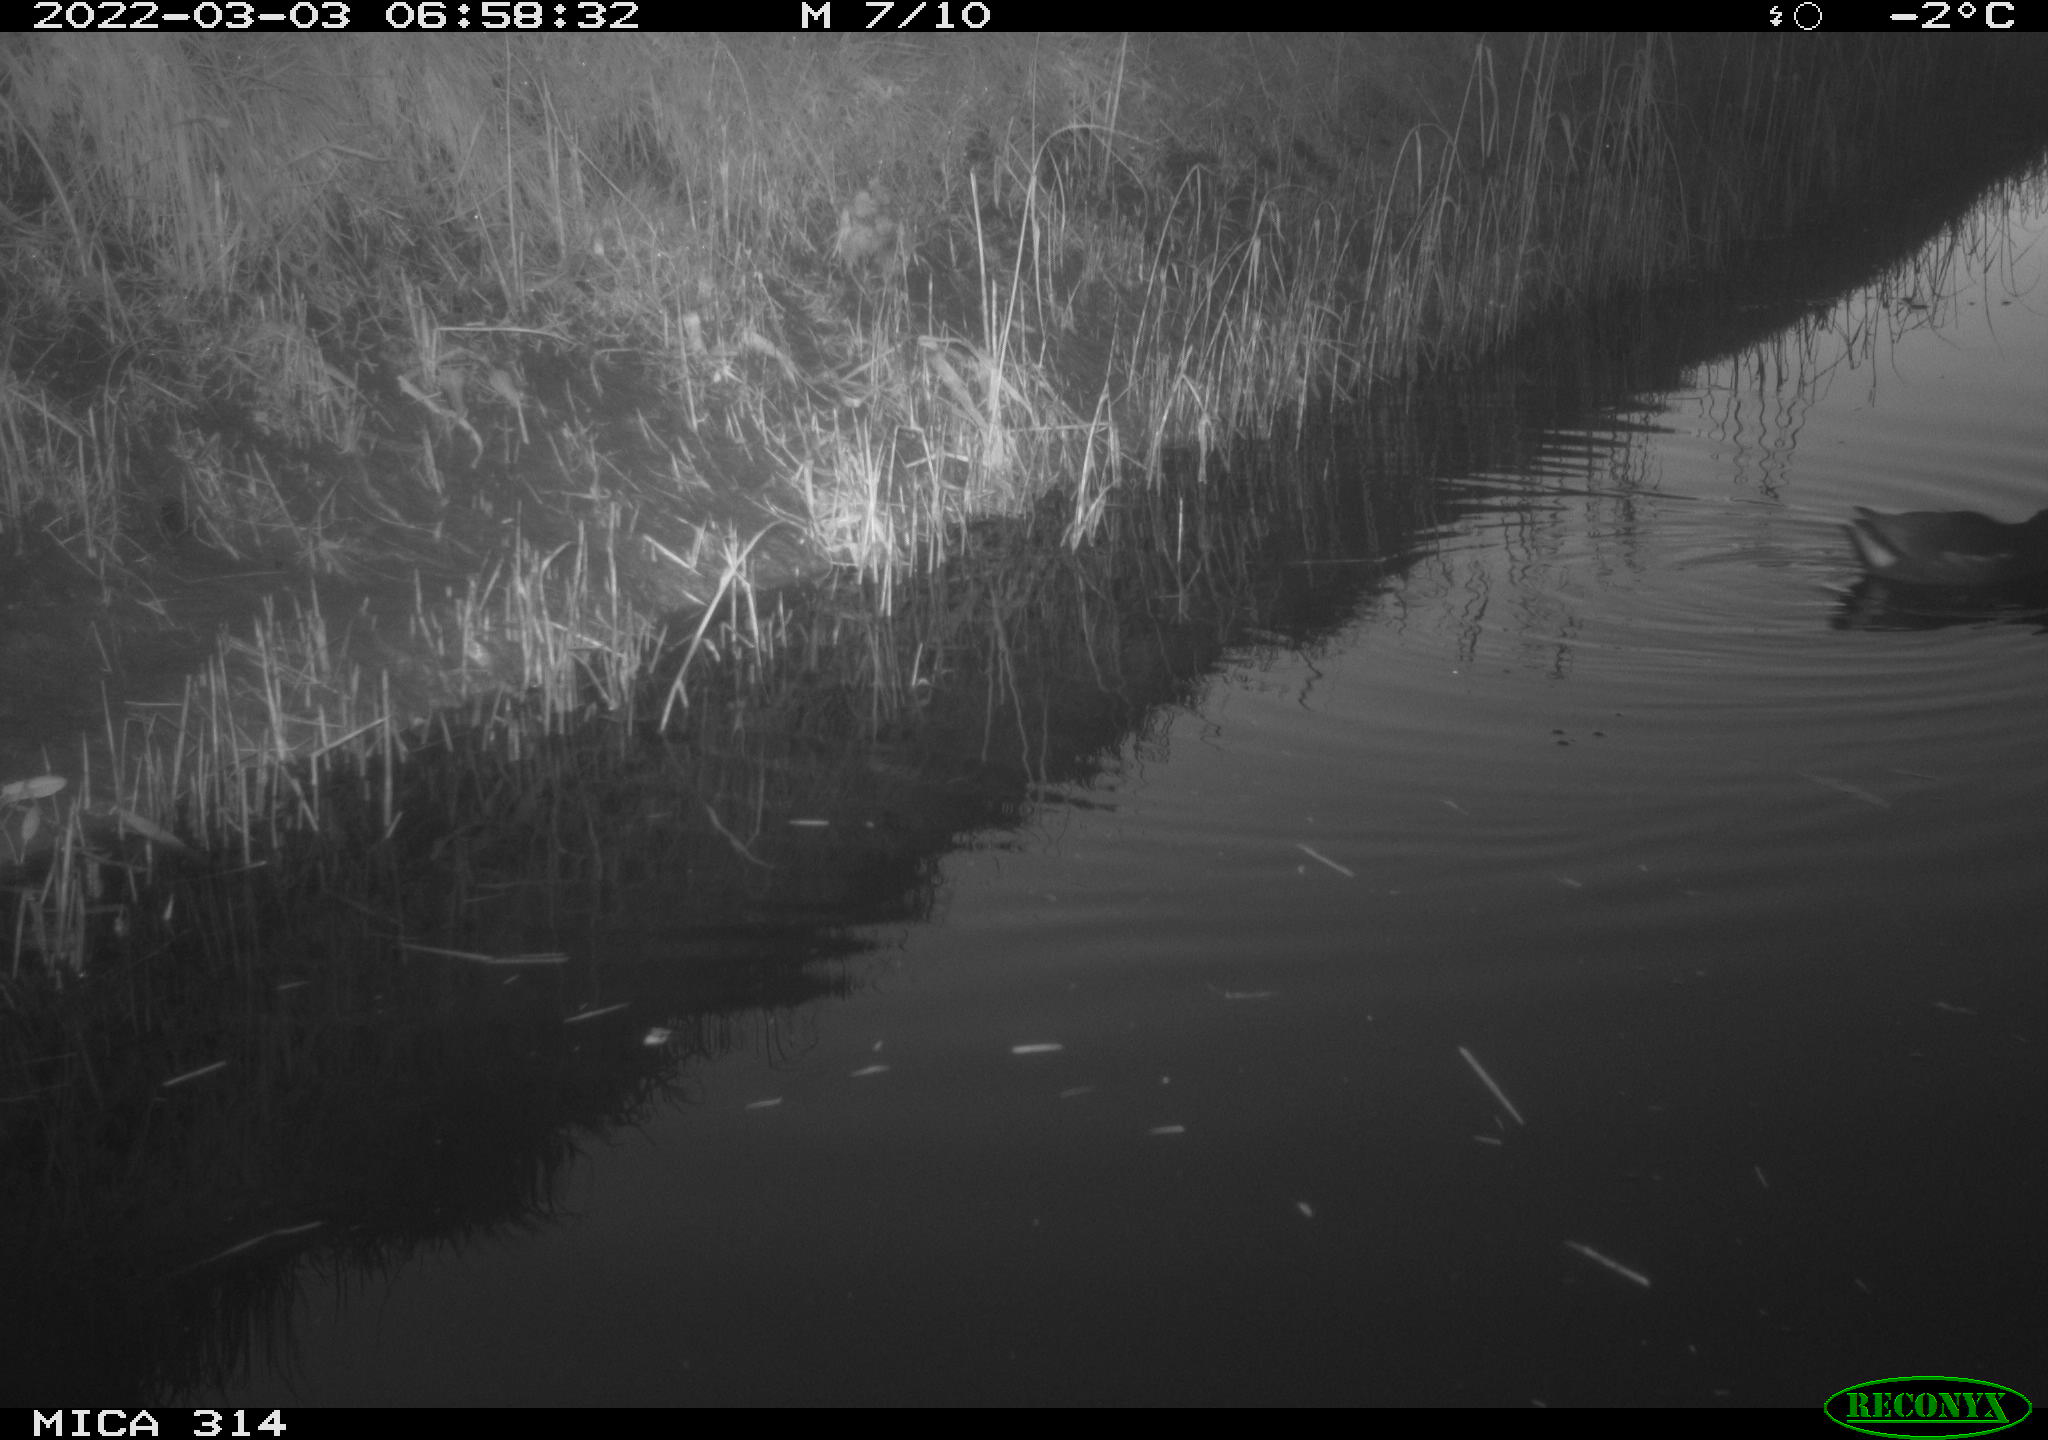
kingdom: Animalia
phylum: Chordata
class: Aves
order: Gruiformes
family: Rallidae
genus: Gallinula
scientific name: Gallinula chloropus
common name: Common moorhen
